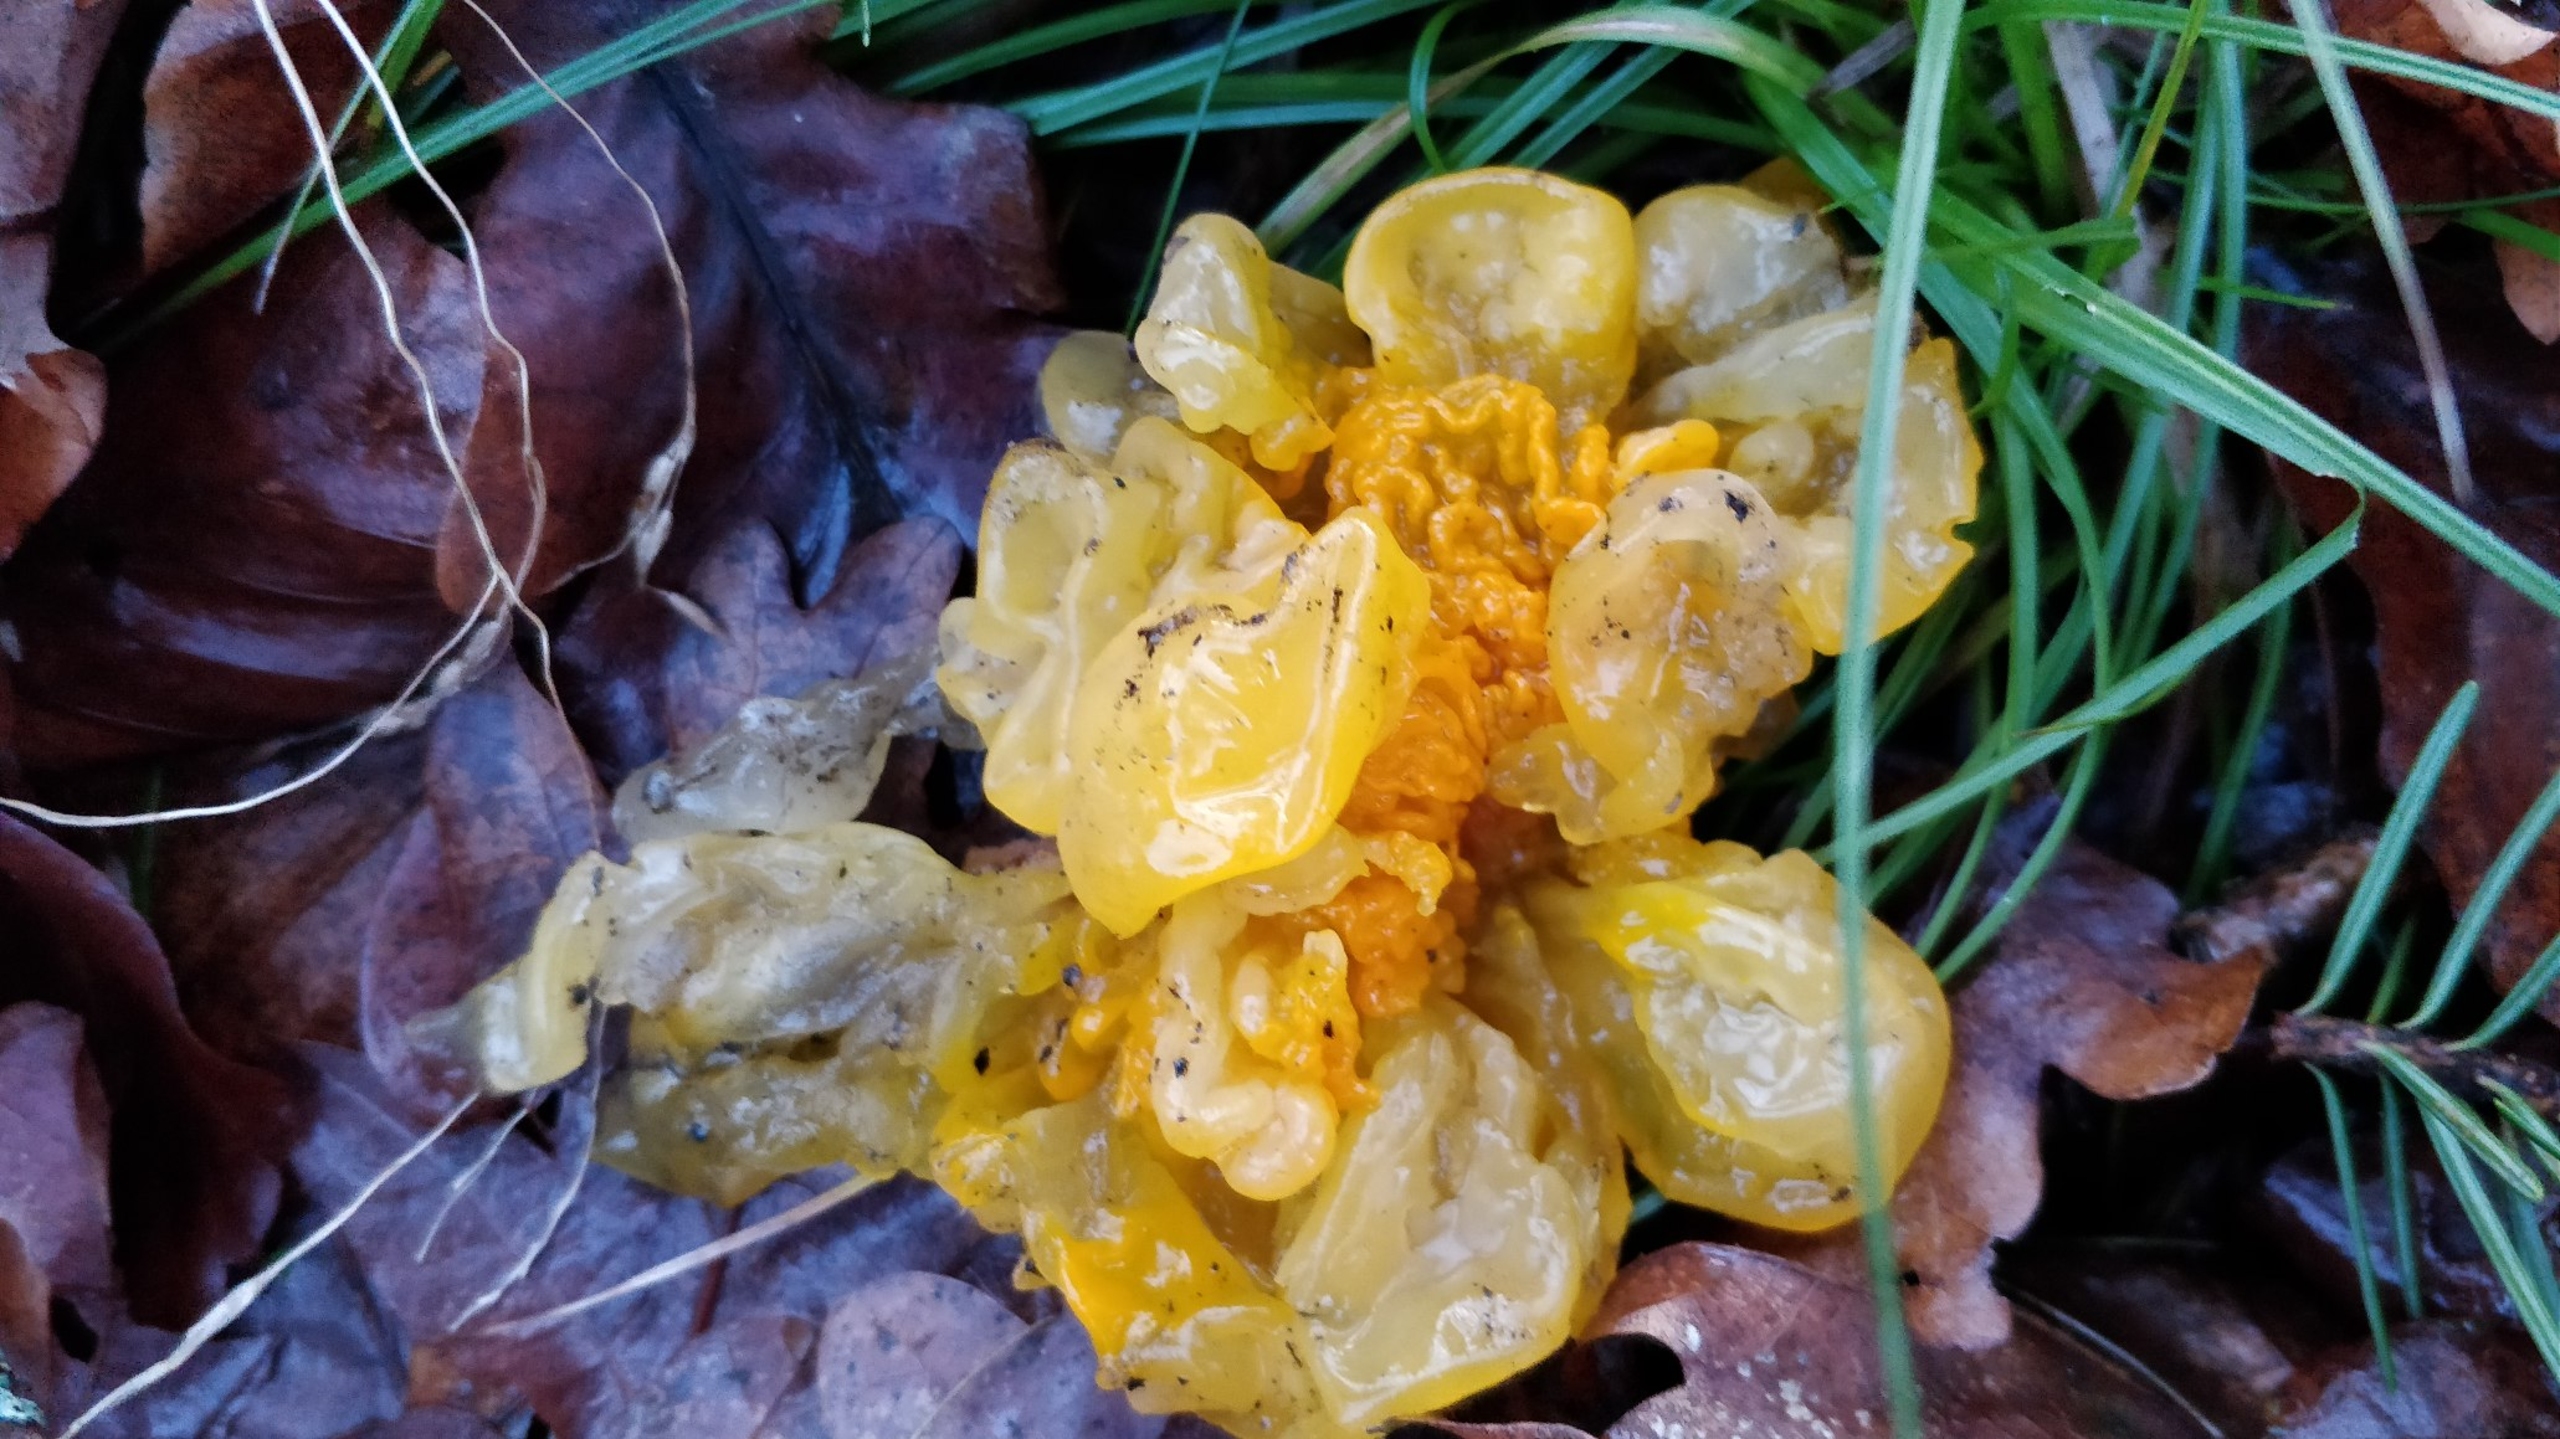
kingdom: Fungi
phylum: Basidiomycota
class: Tremellomycetes
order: Tremellales
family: Tremellaceae
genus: Tremella
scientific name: Tremella mesenterica
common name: Gul bævresvamp
